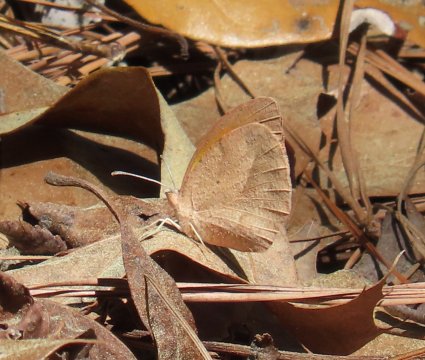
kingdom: Animalia
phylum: Arthropoda
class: Insecta
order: Lepidoptera
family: Pieridae
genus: Abaeis
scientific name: Abaeis nicippe
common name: Sleepy Orange
